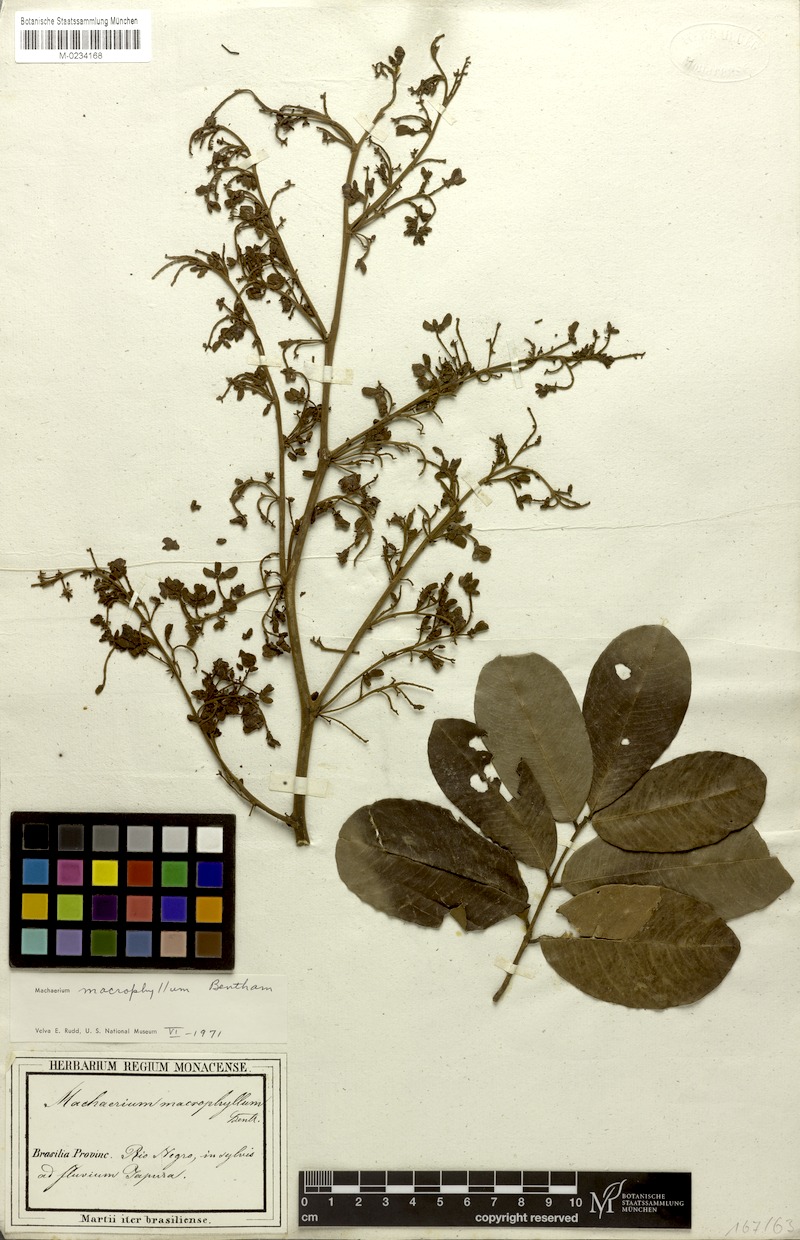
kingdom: Plantae
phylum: Tracheophyta
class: Magnoliopsida
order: Fabales
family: Fabaceae
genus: Machaerium
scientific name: Machaerium macrophyllum
